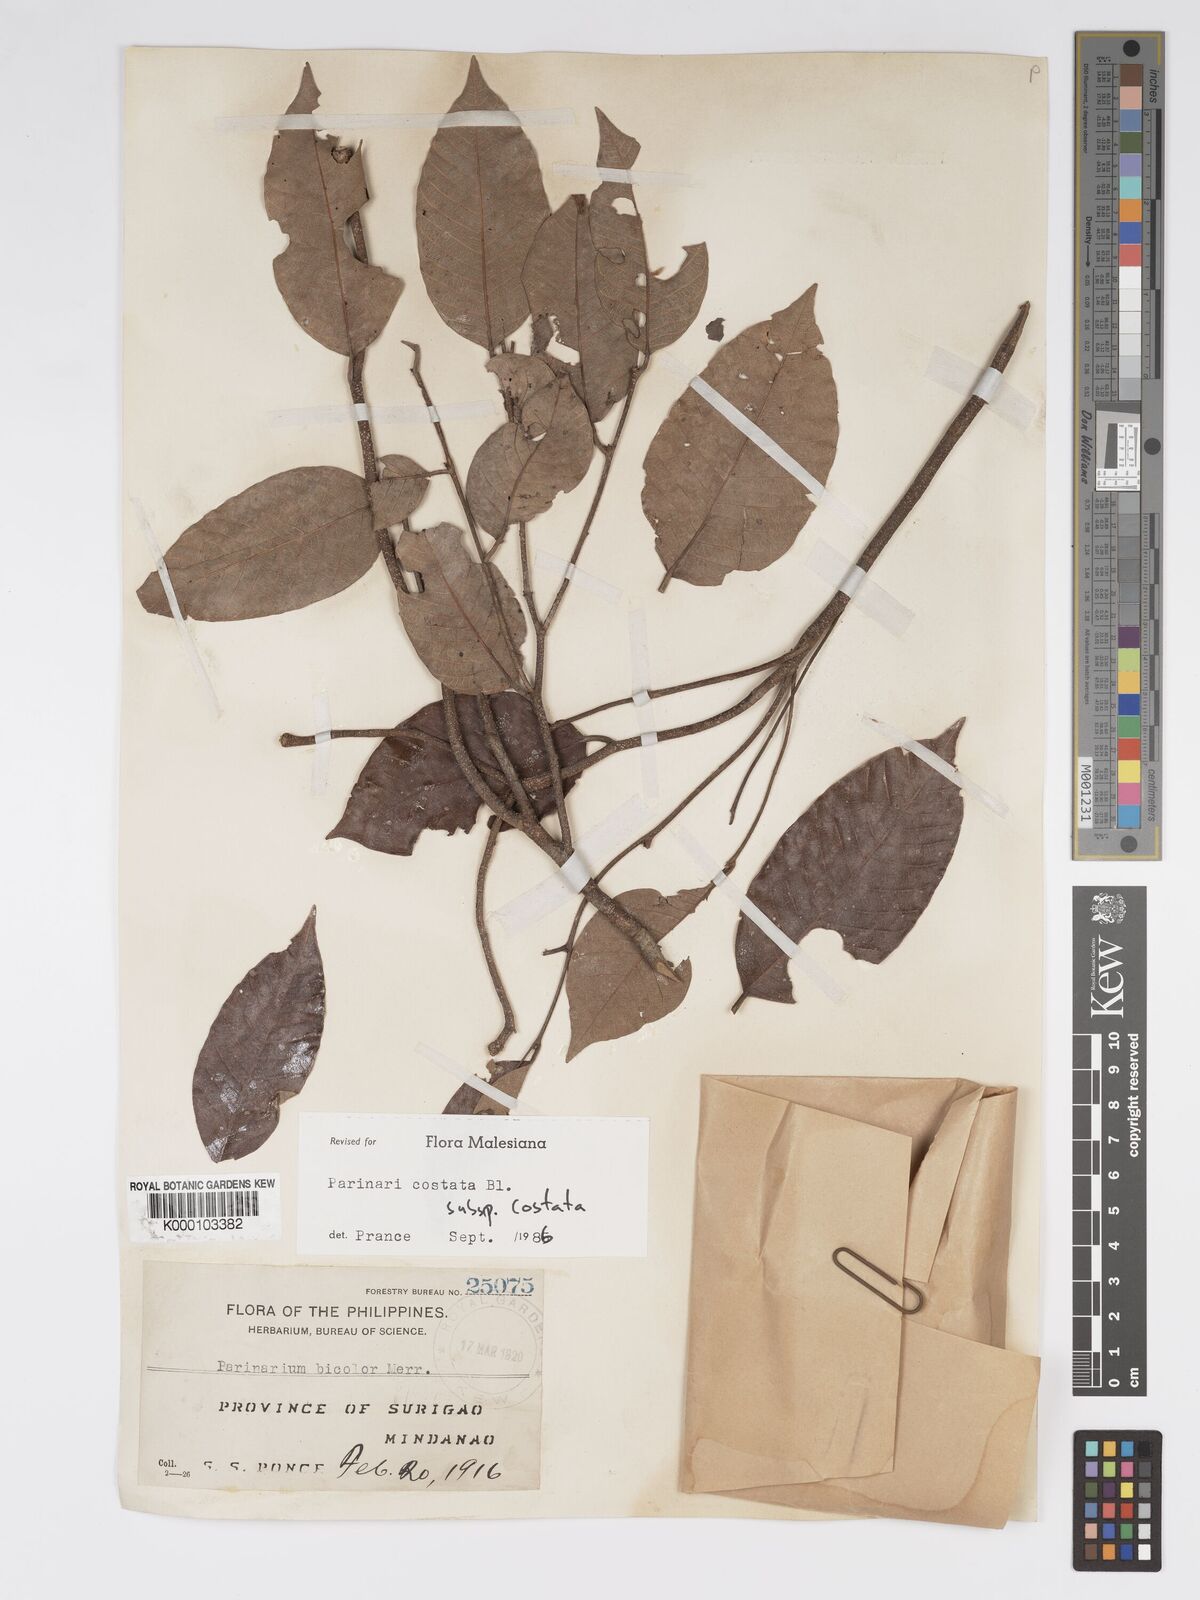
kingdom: Plantae
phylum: Tracheophyta
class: Magnoliopsida
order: Malpighiales
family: Chrysobalanaceae
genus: Parinari
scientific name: Parinari costata
